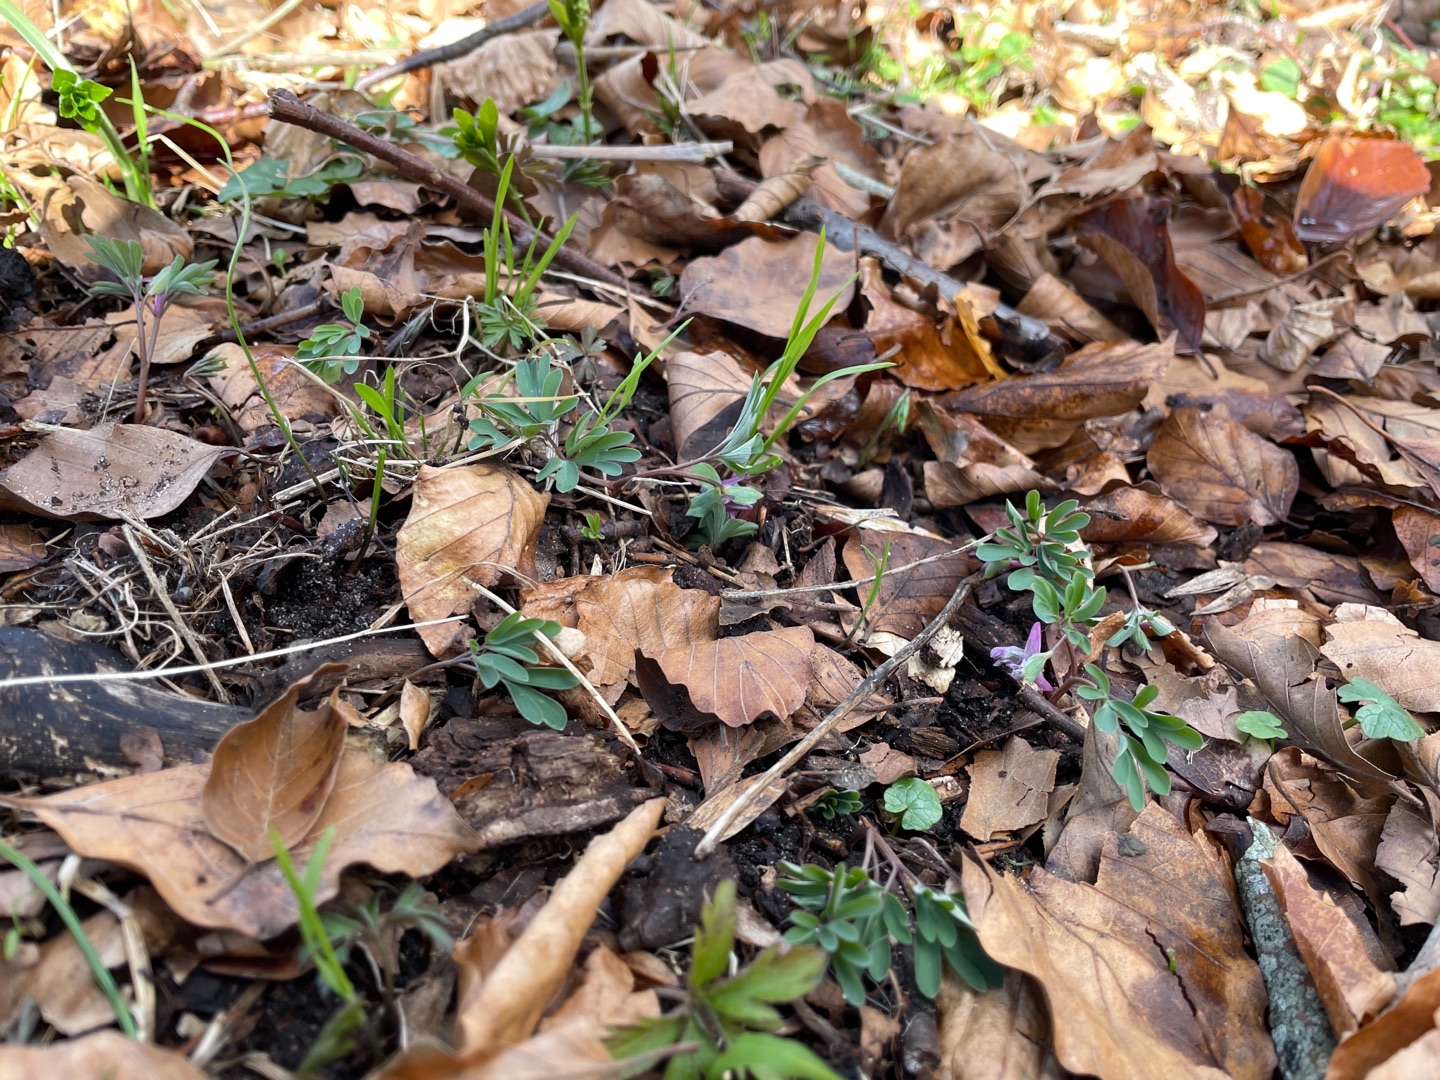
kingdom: Plantae
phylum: Tracheophyta
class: Magnoliopsida
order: Ranunculales
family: Papaveraceae
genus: Corydalis
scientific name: Corydalis intermedia
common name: Liden lærkespore
